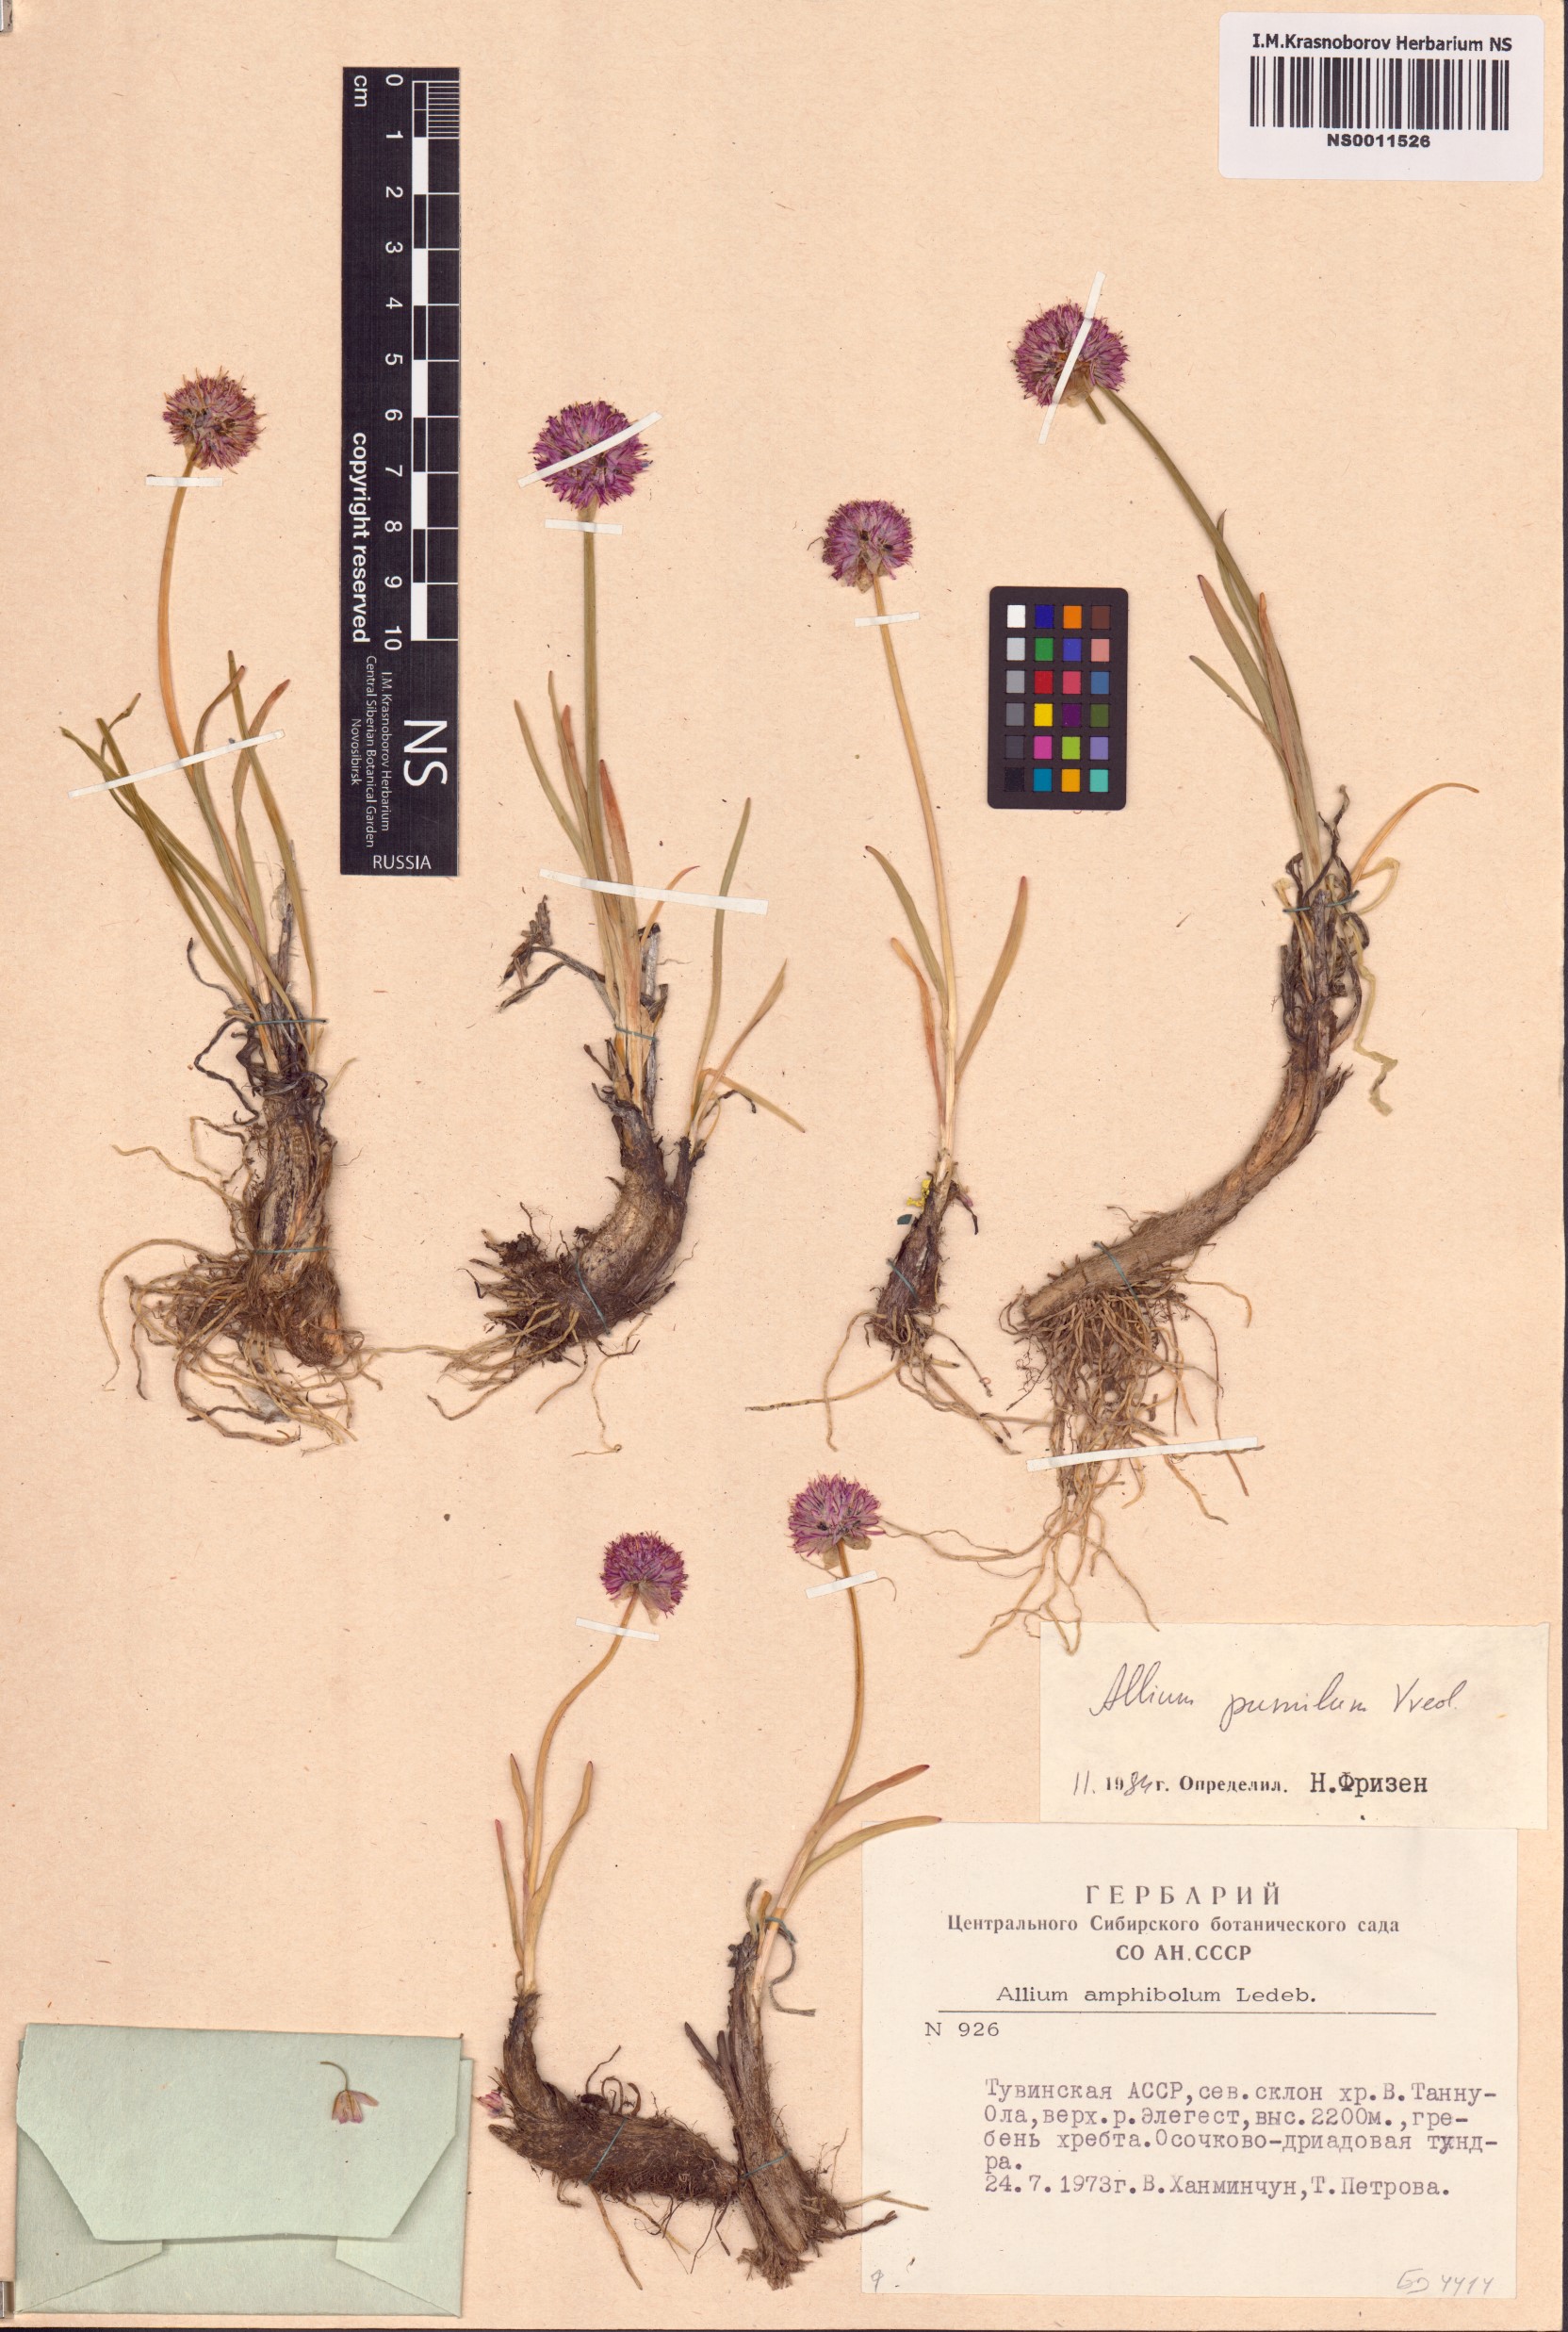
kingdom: Plantae
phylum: Tracheophyta
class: Liliopsida
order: Asparagales
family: Amaryllidaceae
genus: Allium
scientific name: Allium pumilum
